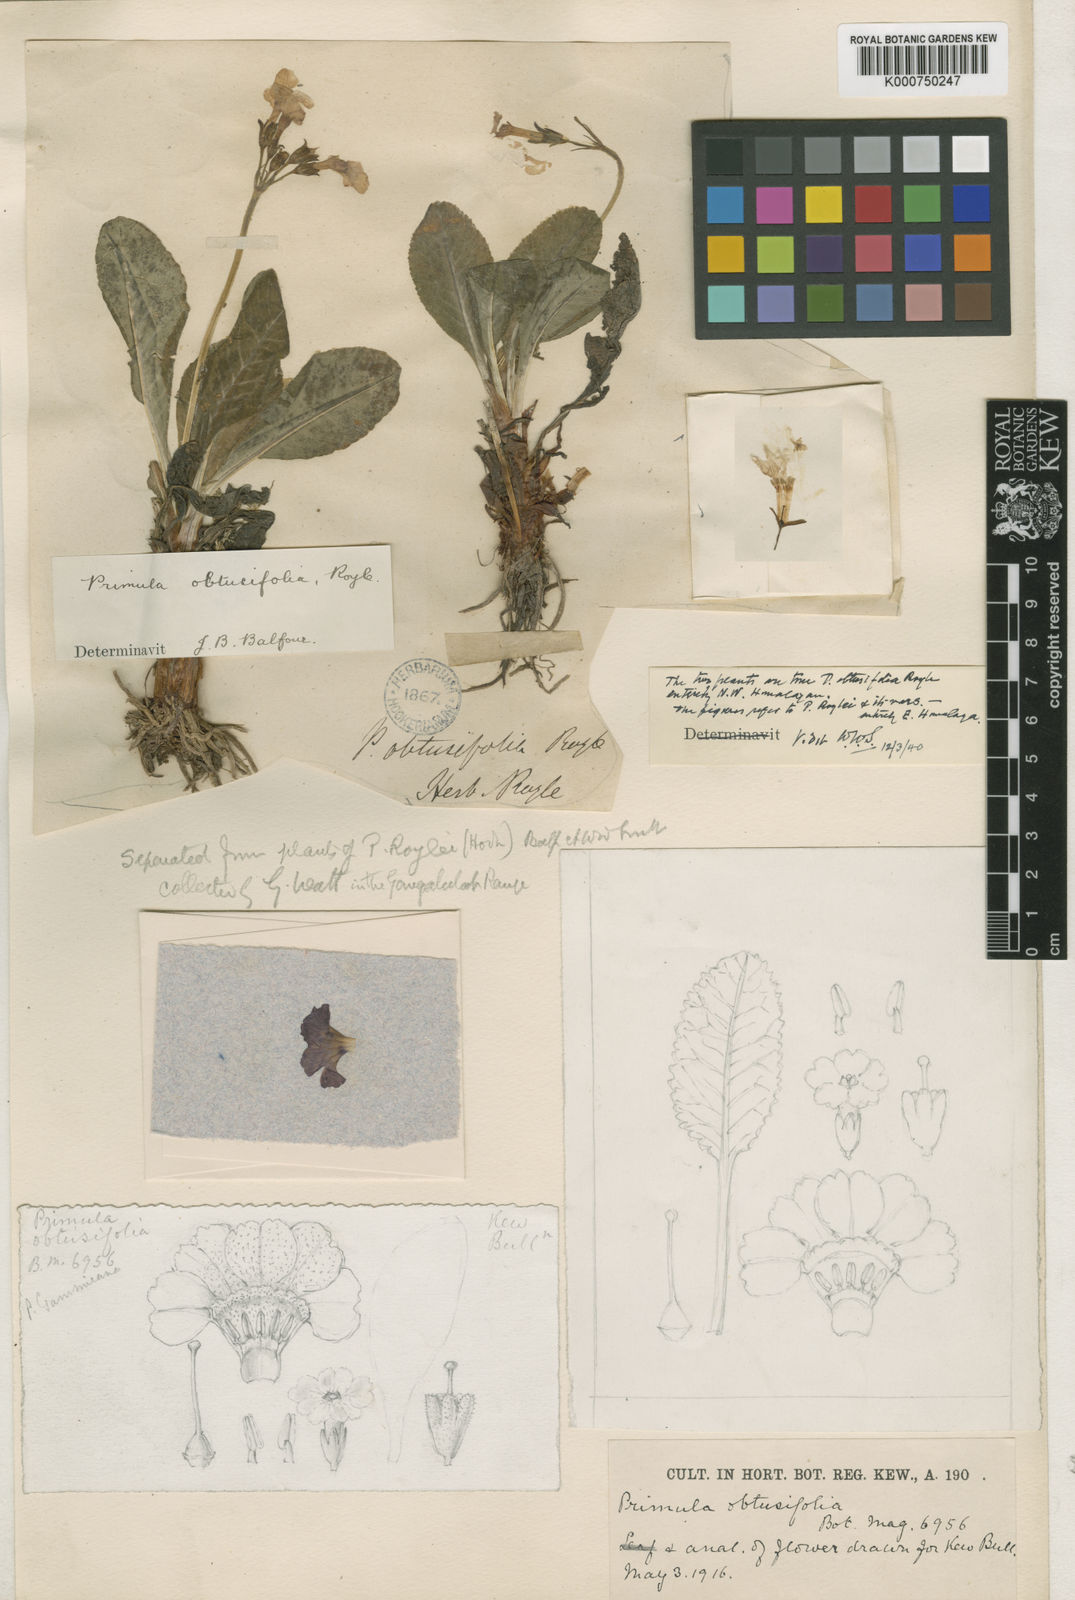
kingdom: Plantae
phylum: Tracheophyta
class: Magnoliopsida
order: Ericales
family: Primulaceae
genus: Primula
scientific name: Primula obtusifolia
